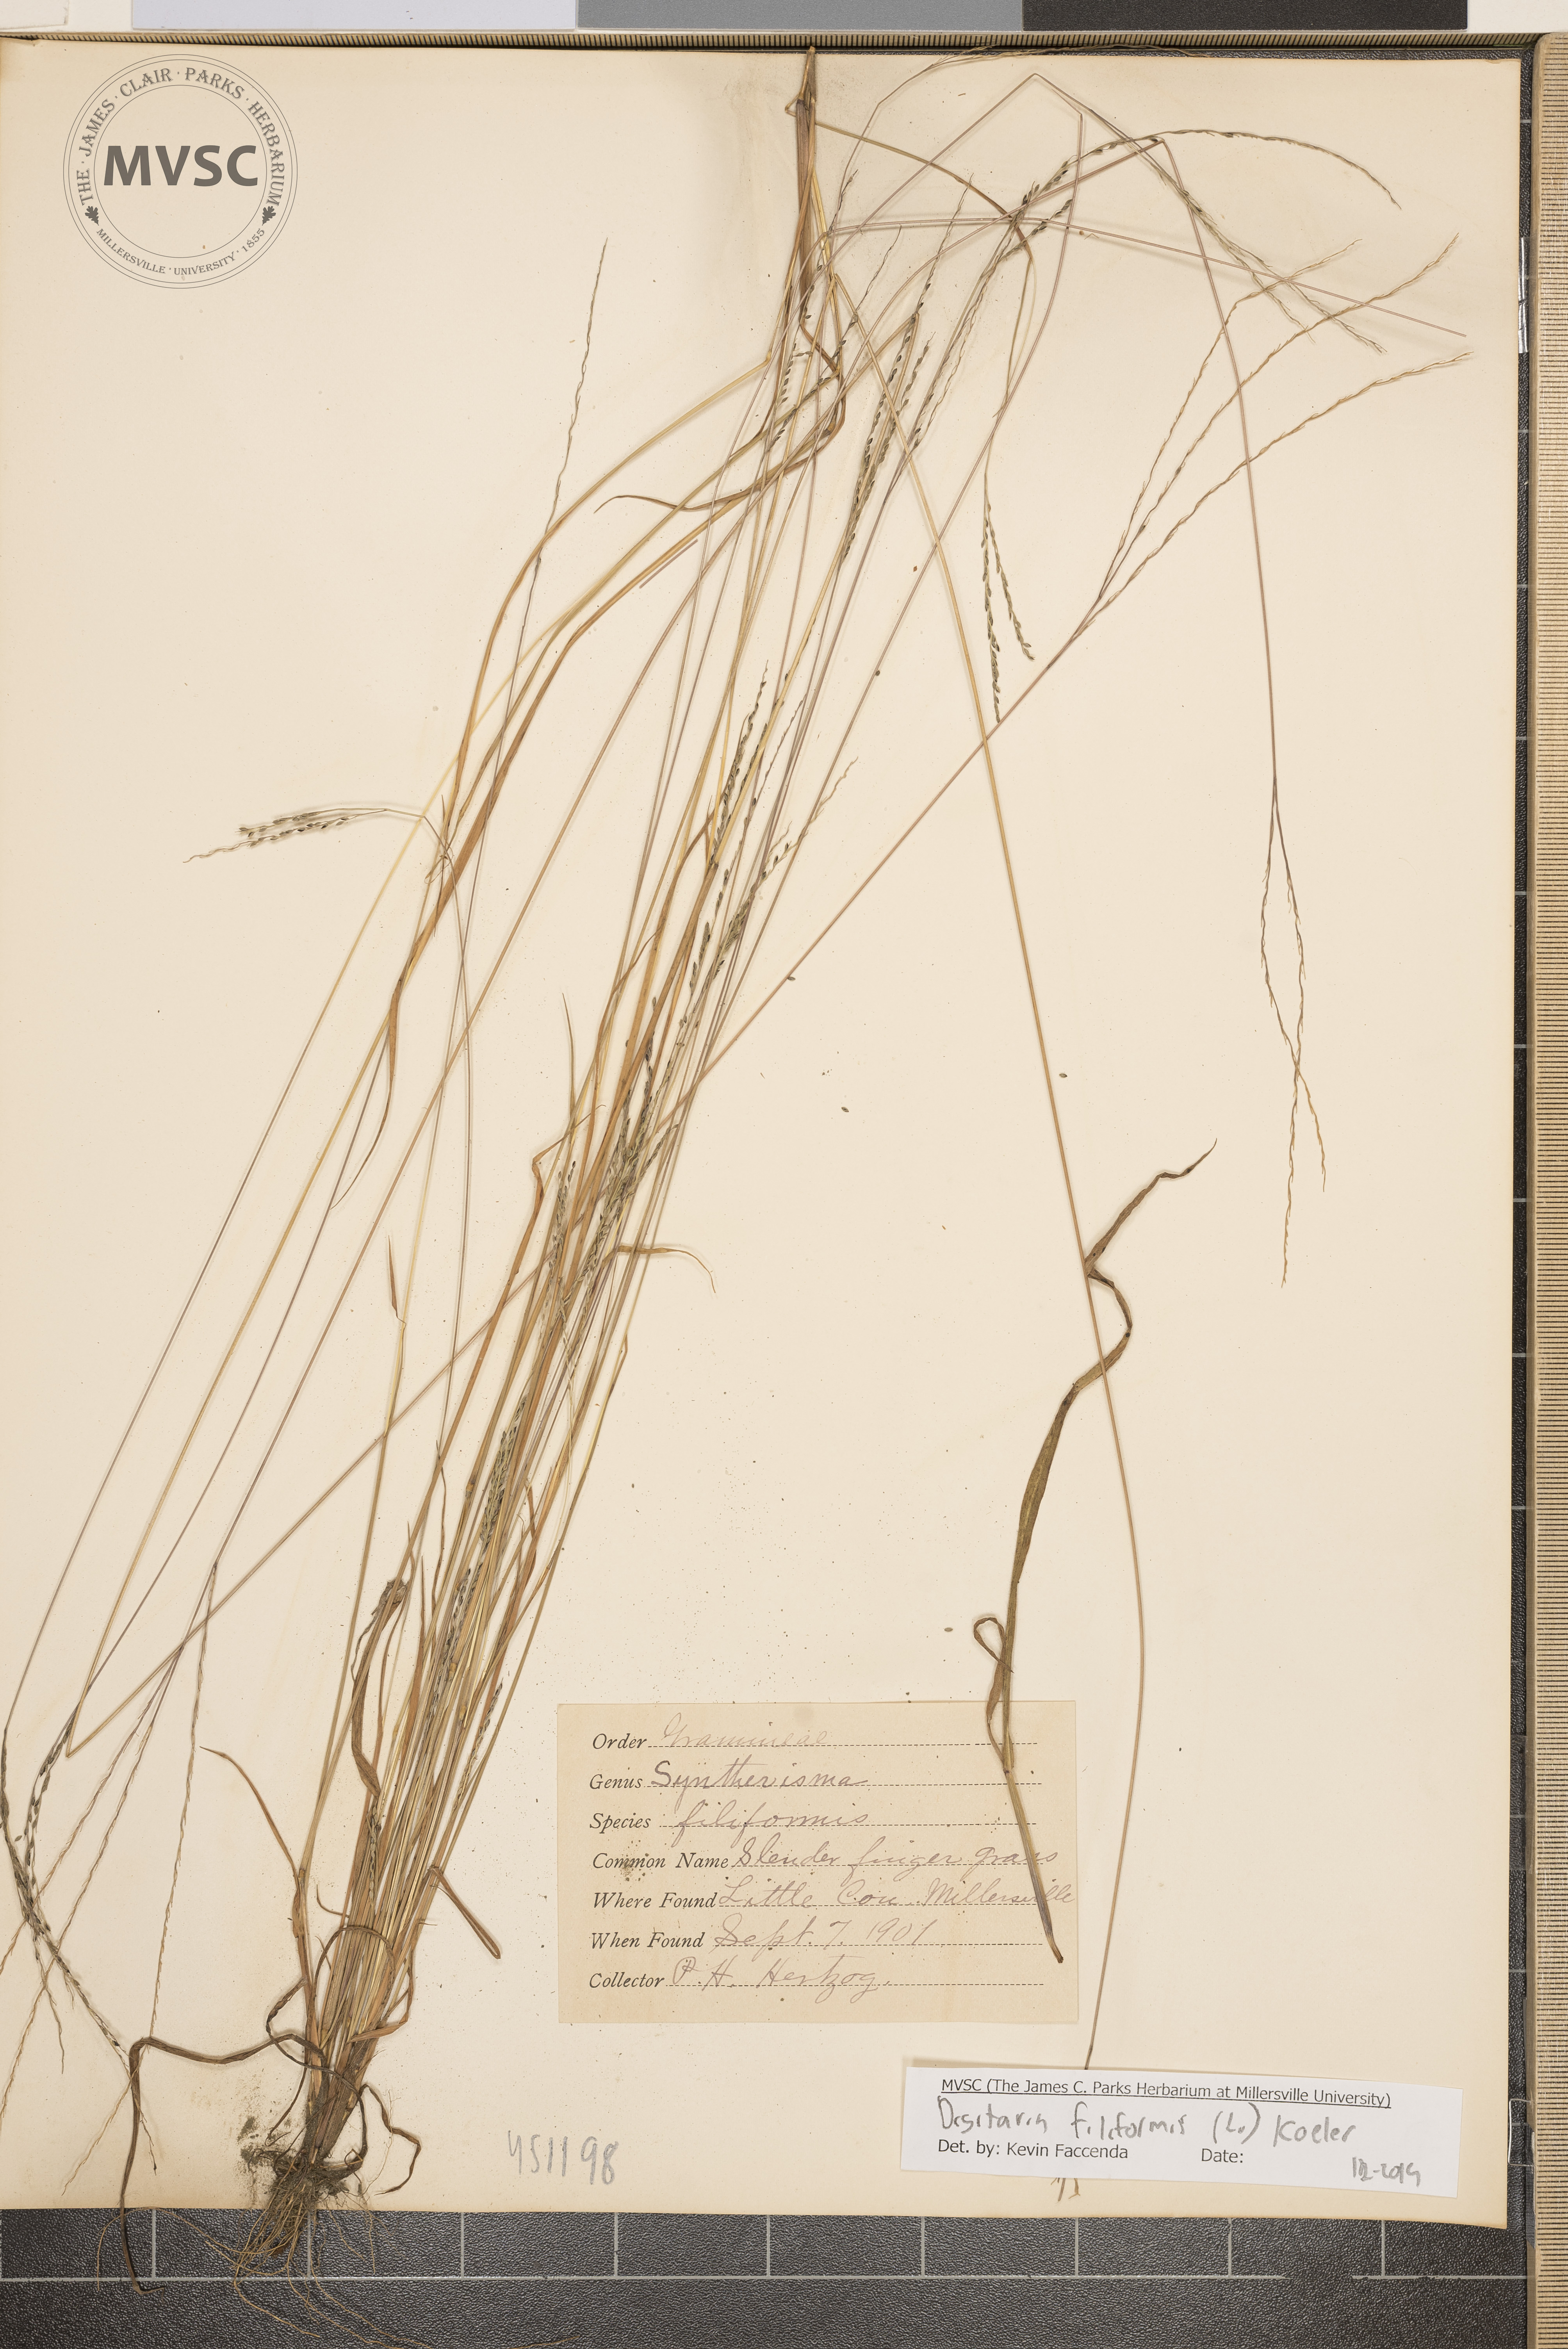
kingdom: Plantae
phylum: Tracheophyta
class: Liliopsida
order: Poales
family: Poaceae
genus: Digitaria
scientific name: Digitaria filiformis
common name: Slender crabgrass
